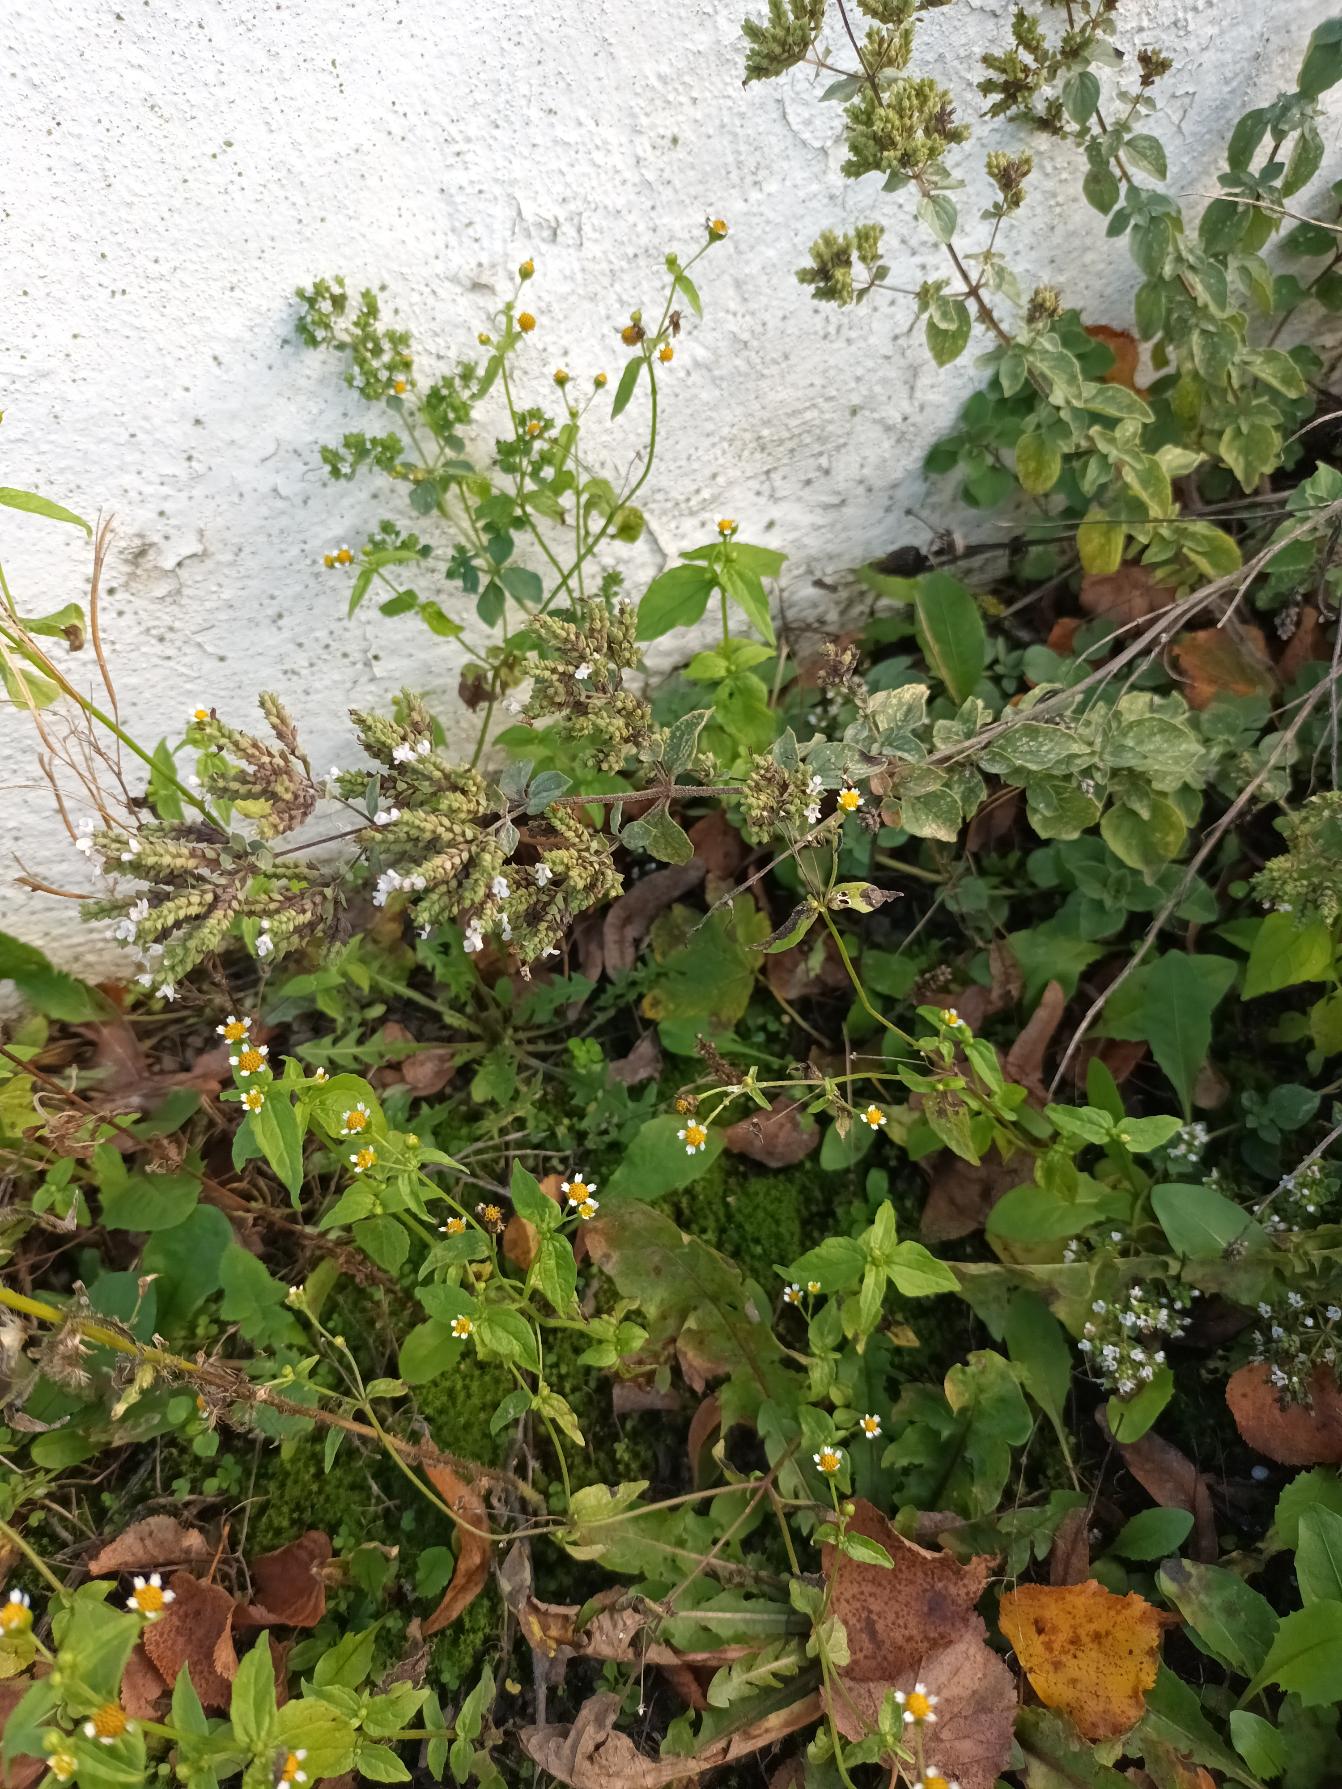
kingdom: Plantae
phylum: Tracheophyta
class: Magnoliopsida
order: Lamiales
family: Lamiaceae
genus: Origanum
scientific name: Origanum majorana
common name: Have-merian
